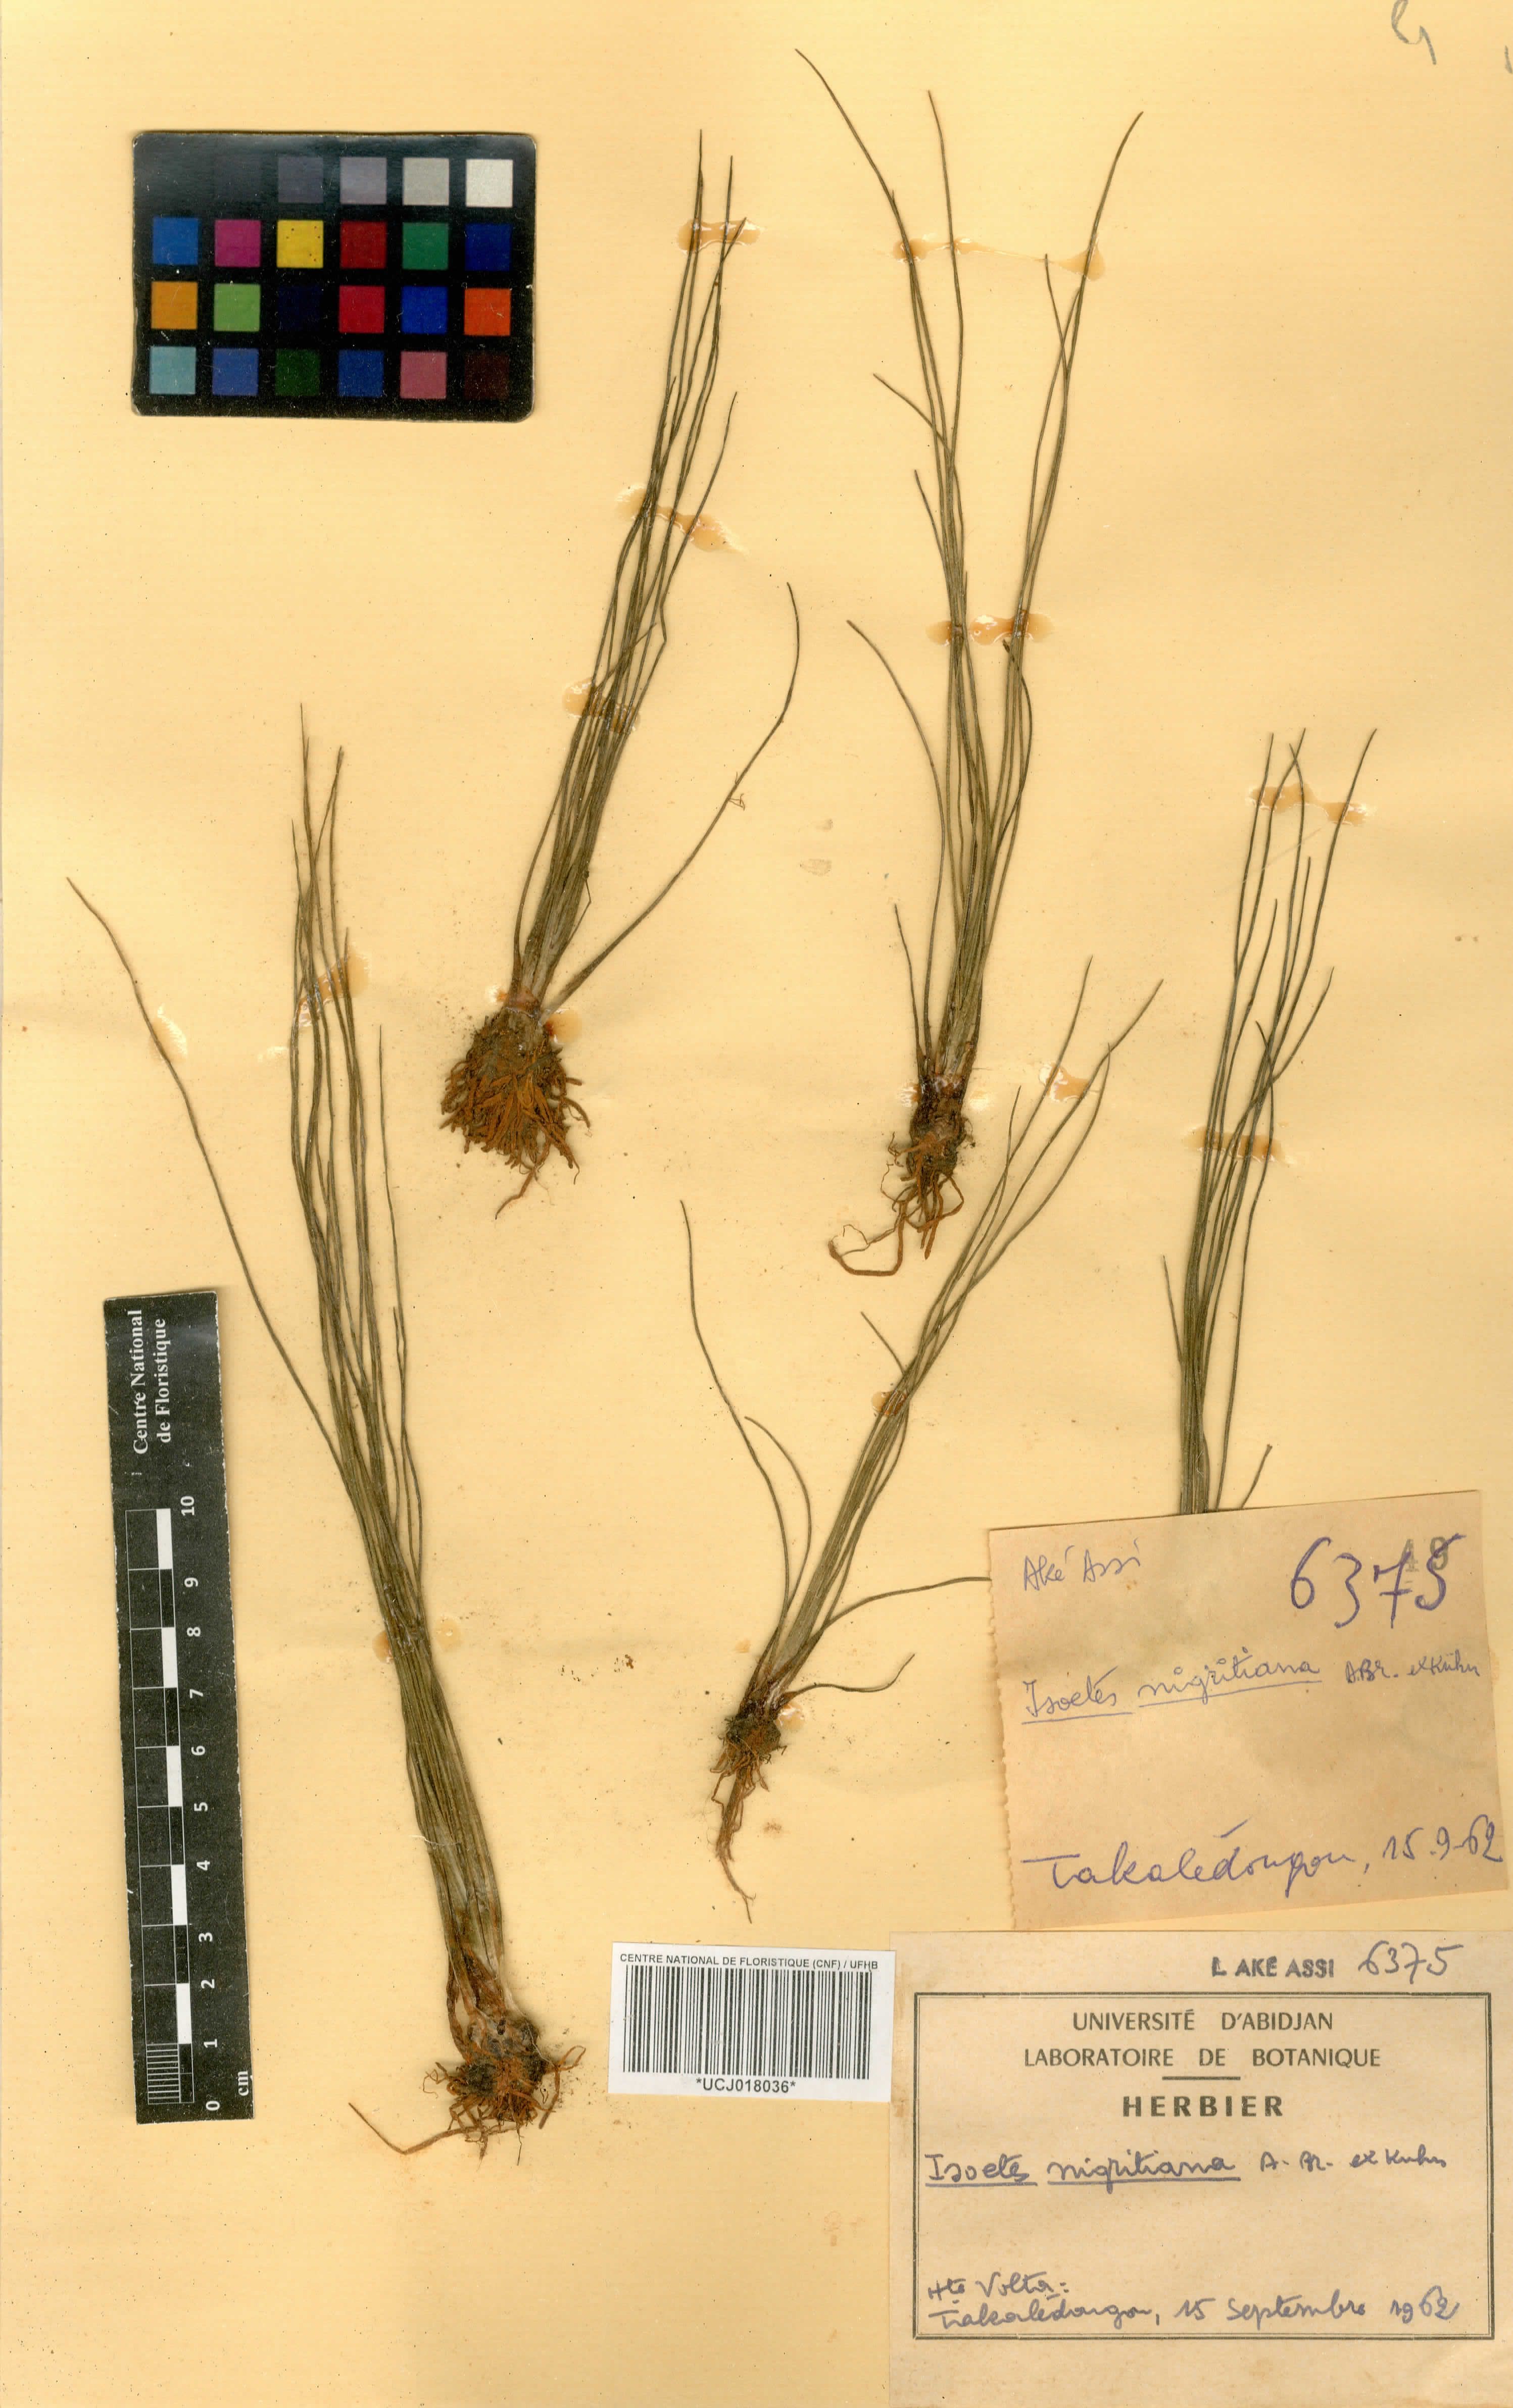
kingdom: Plantae
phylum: Tracheophyta
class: Lycopodiopsida
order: Isoetales
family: Isoetaceae
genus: Isoetes
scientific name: Isoetes nigritiana
